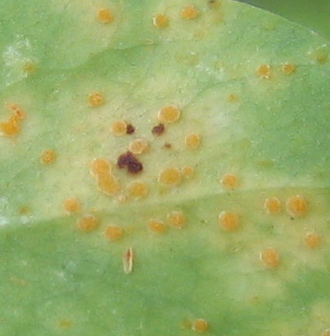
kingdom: Fungi
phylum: Basidiomycota
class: Pucciniomycetes
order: Pucciniales
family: Melampsoraceae
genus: Melampsora
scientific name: Melampsora euphorbiae
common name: vortemælk-skorperust
